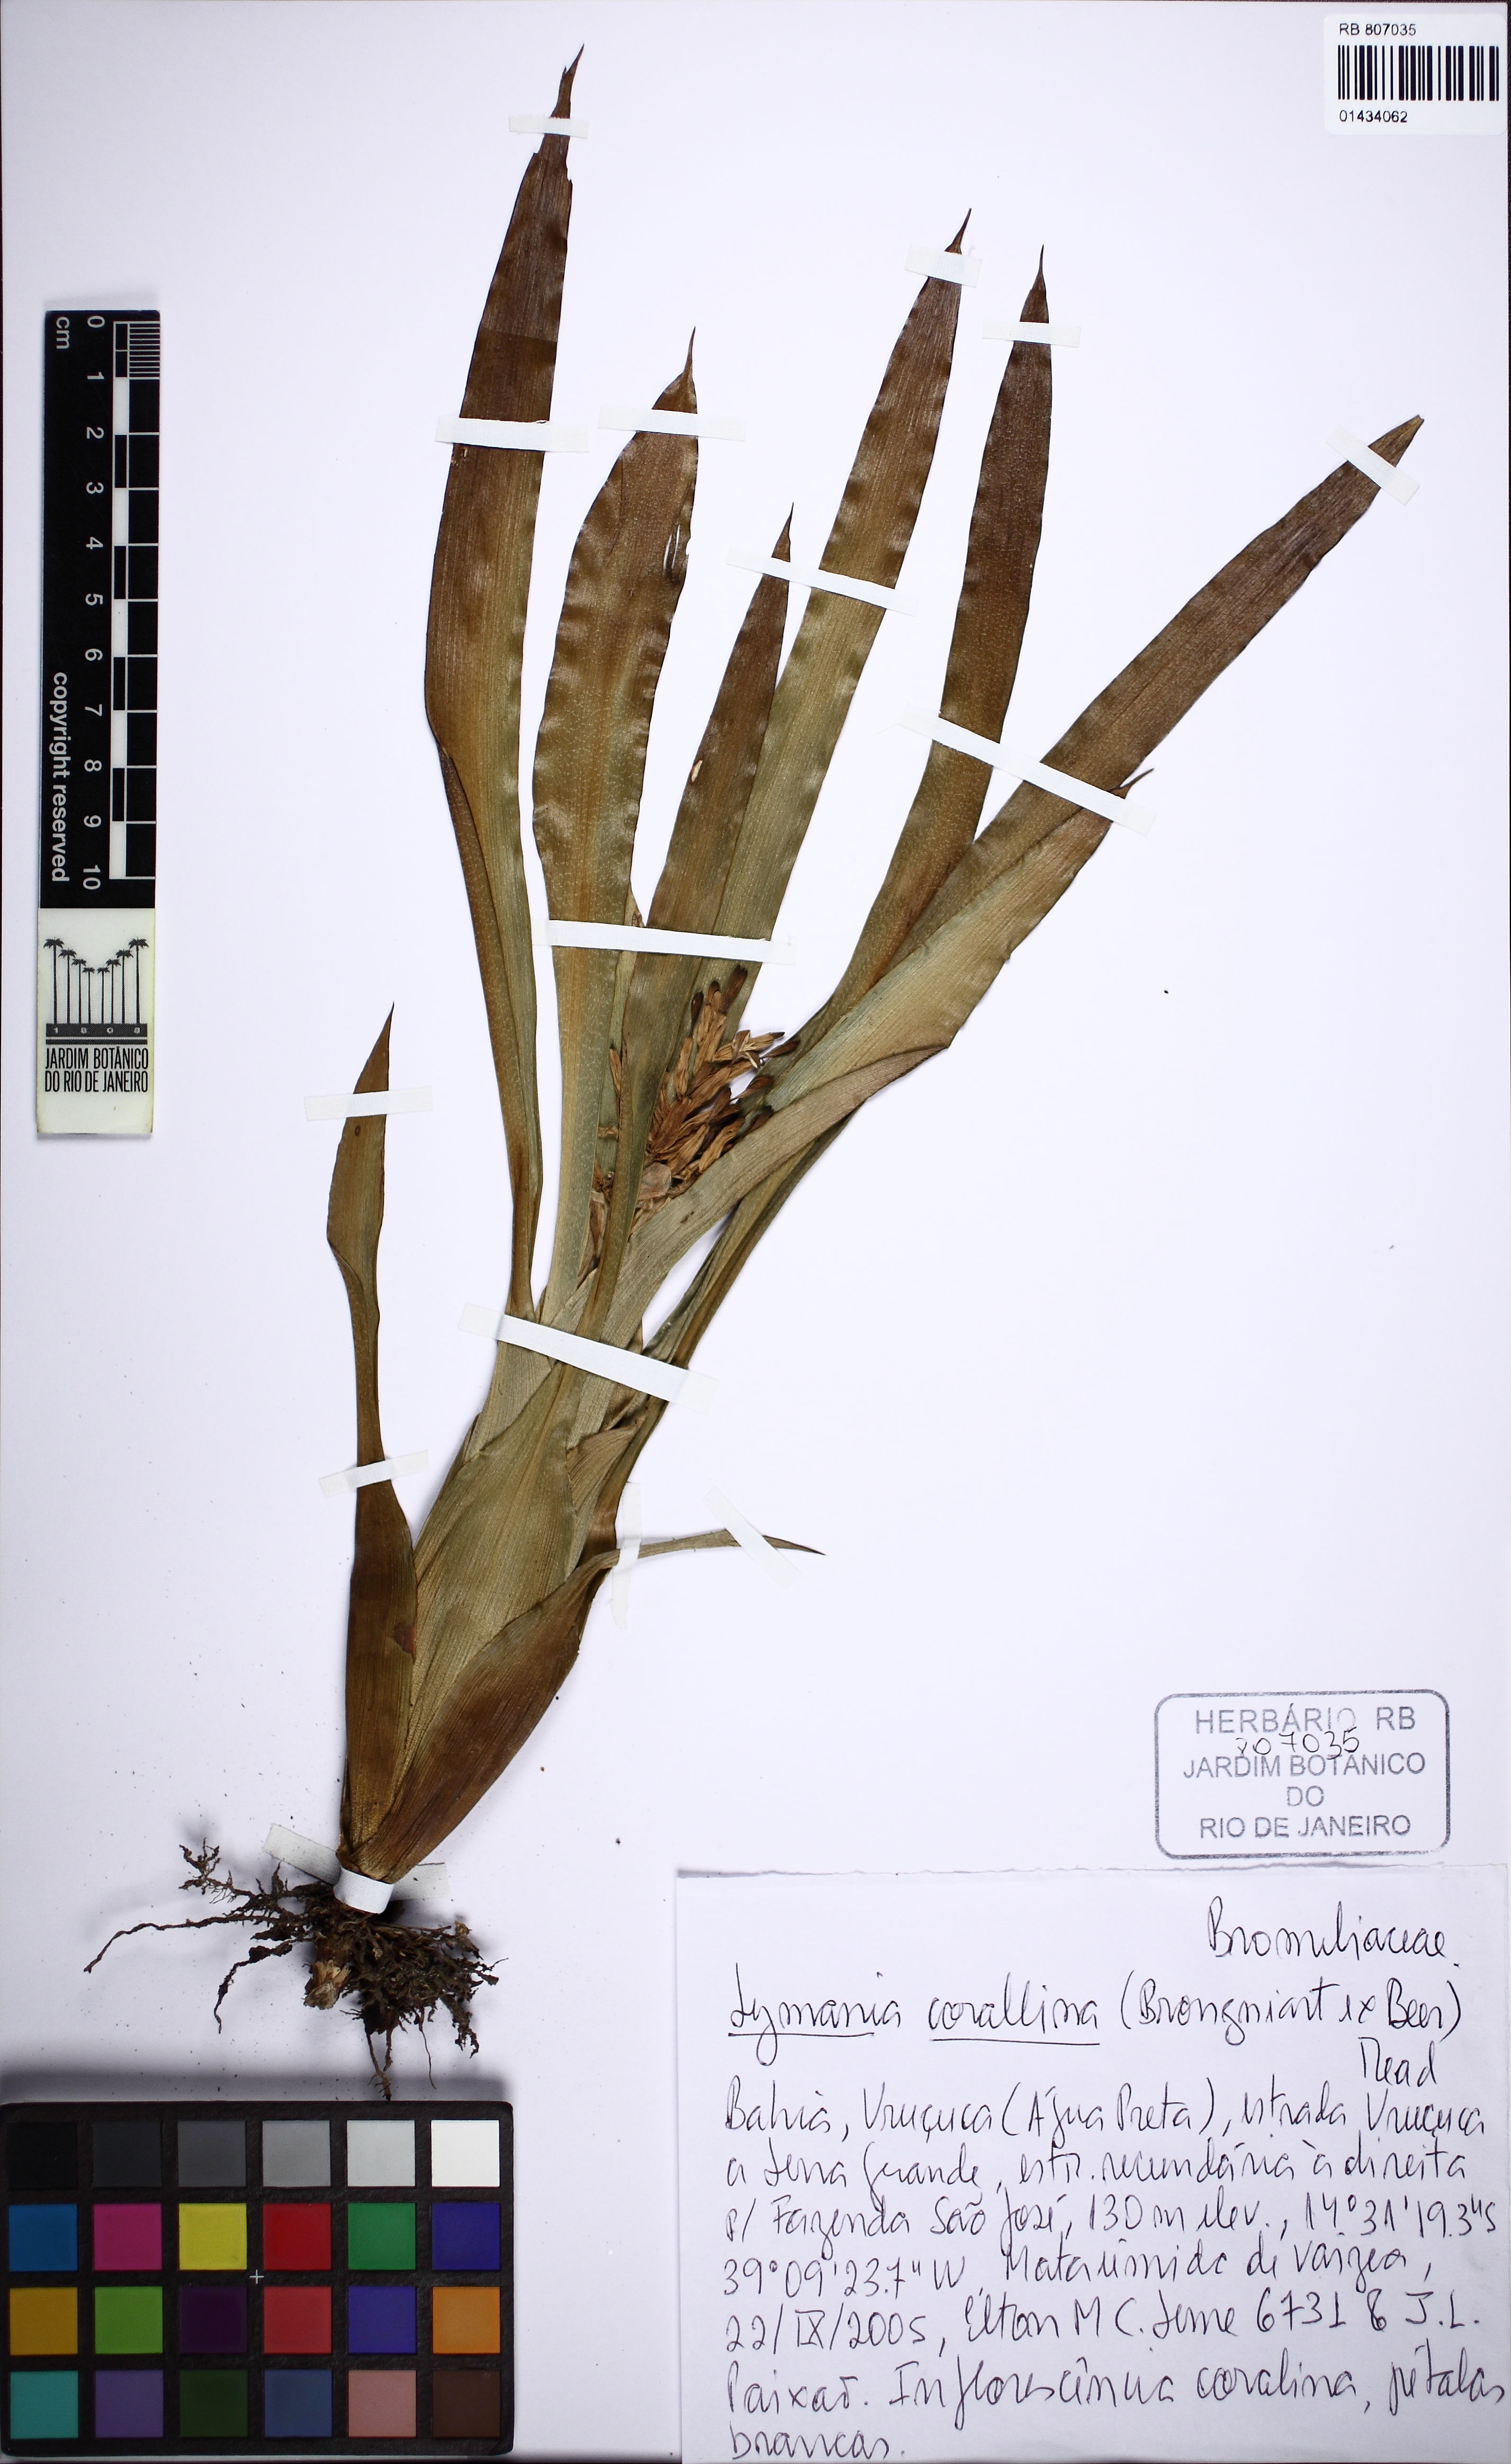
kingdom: Plantae
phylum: Tracheophyta
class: Liliopsida
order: Poales
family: Bromeliaceae
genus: Lymania
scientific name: Lymania corallina
